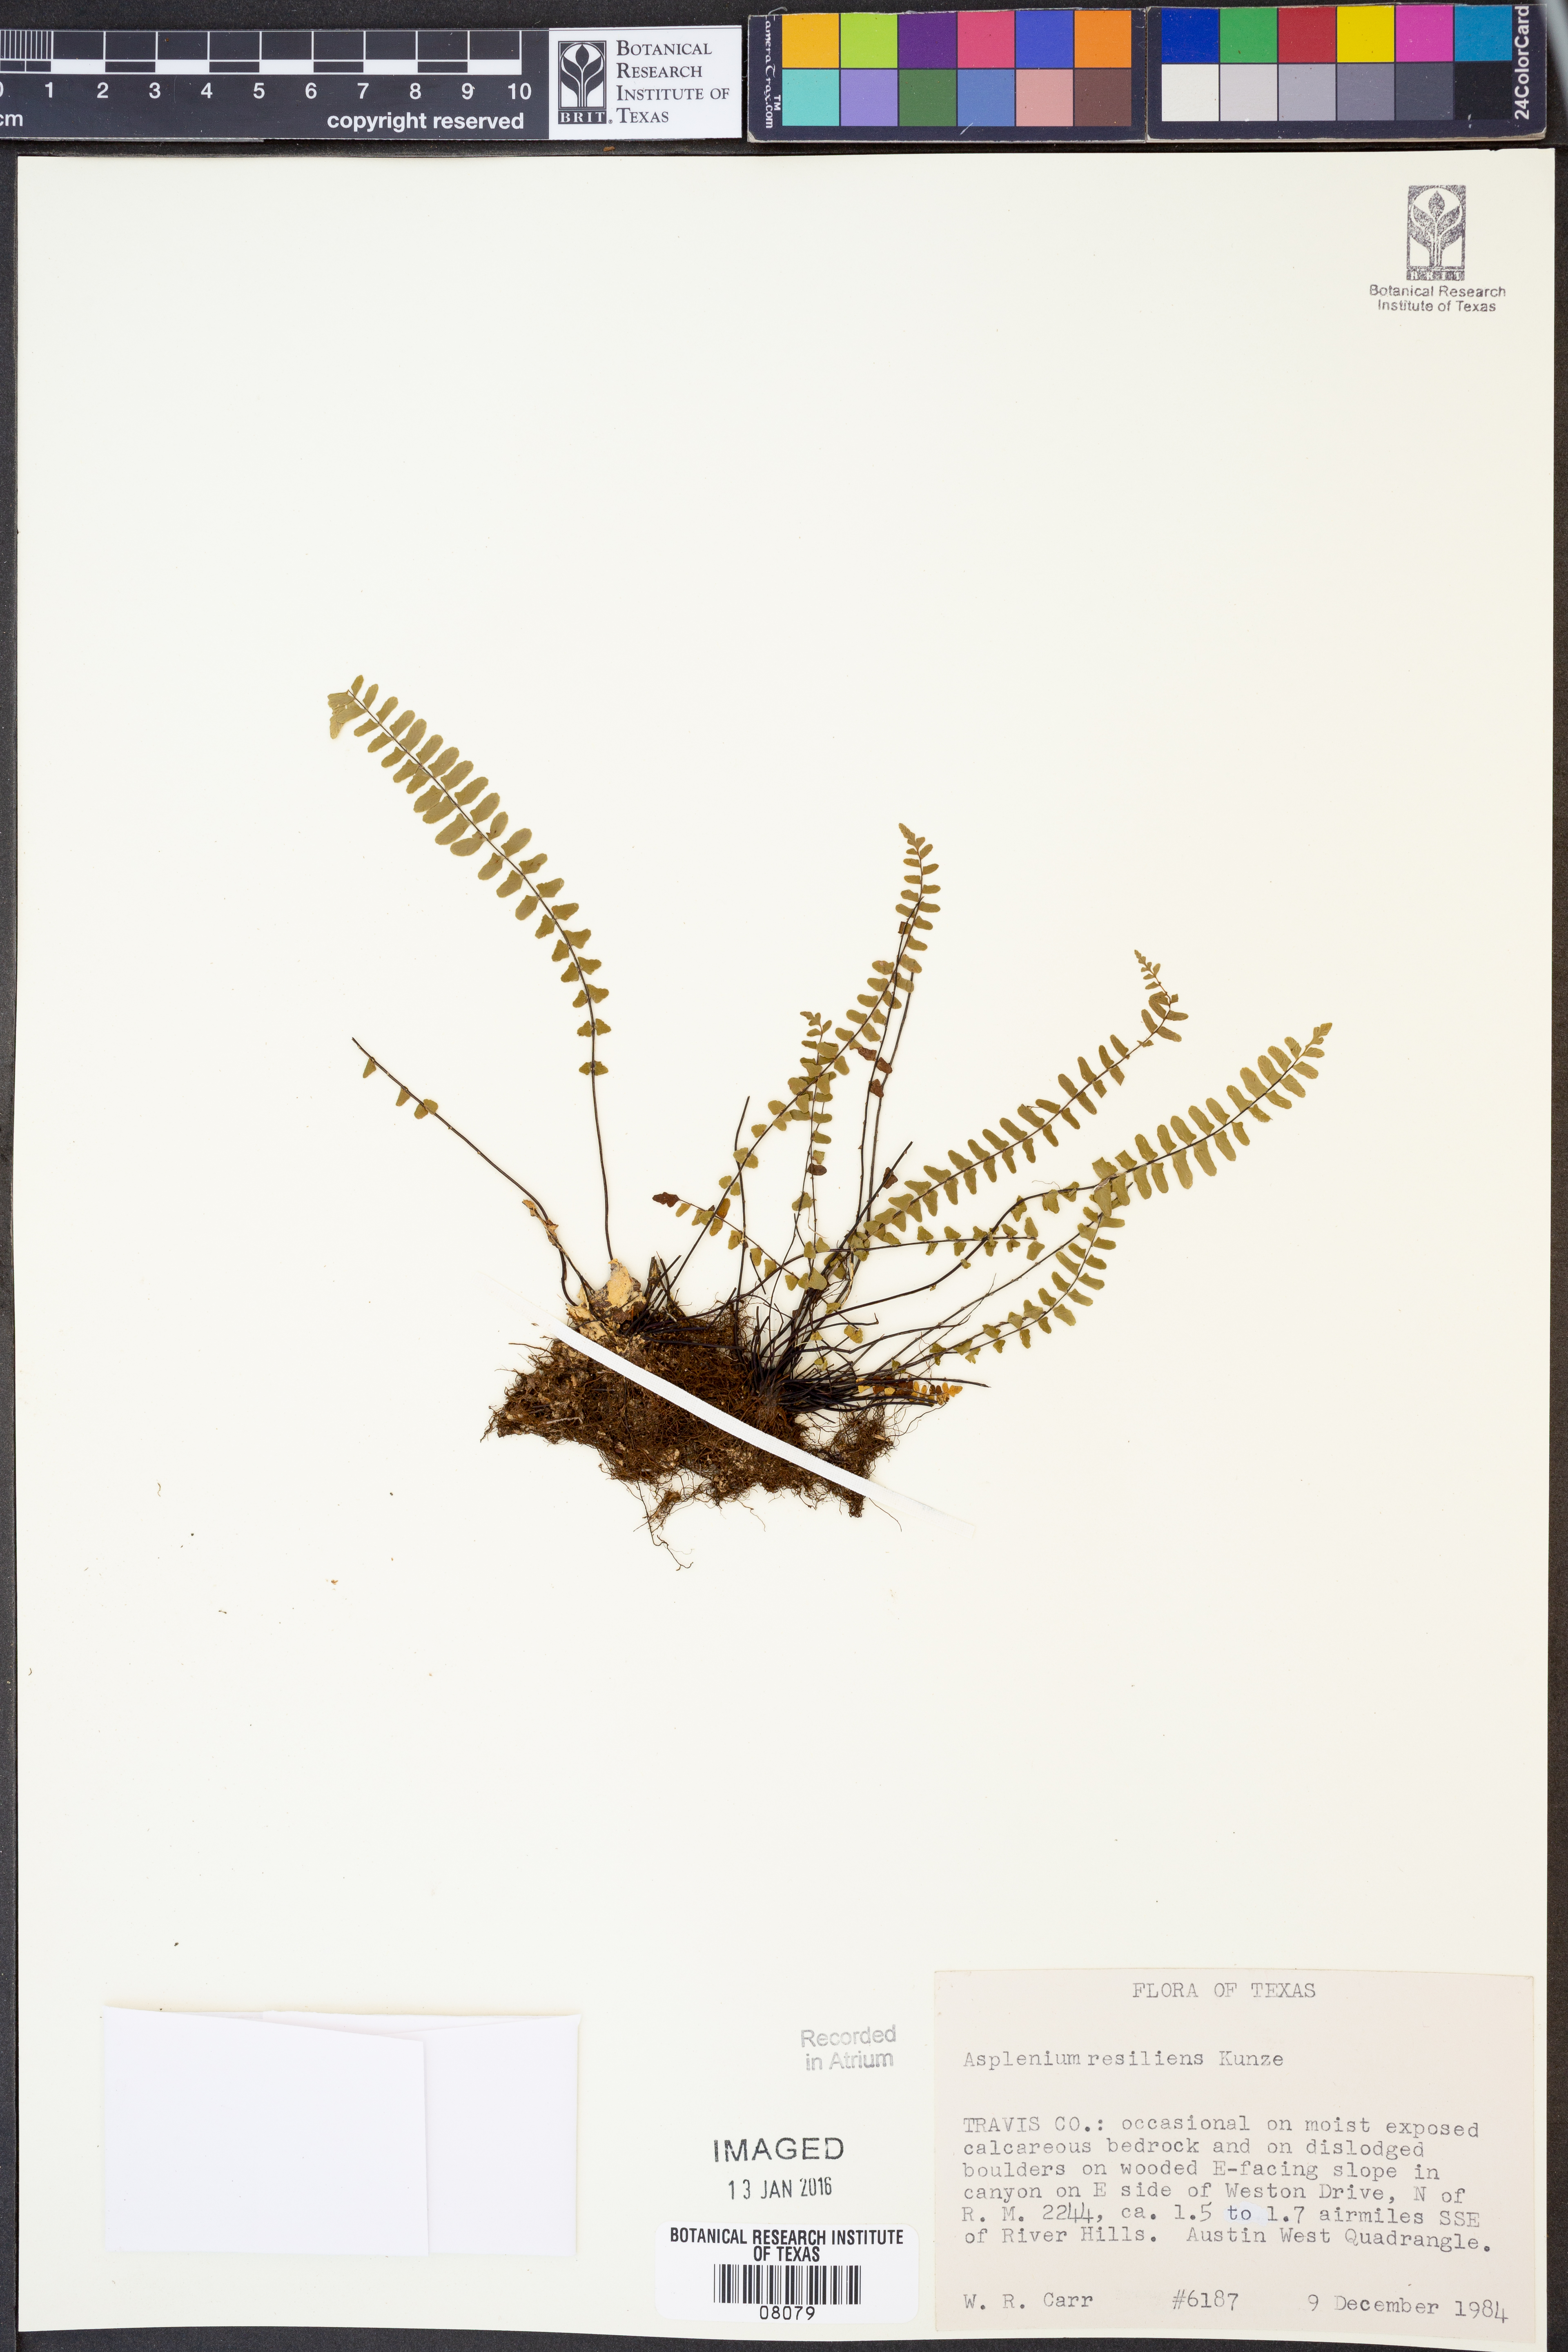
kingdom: Plantae
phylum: Tracheophyta
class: Polypodiopsida
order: Polypodiales
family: Aspleniaceae
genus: Asplenium
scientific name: Asplenium resiliens
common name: Blackstem spleenwort
